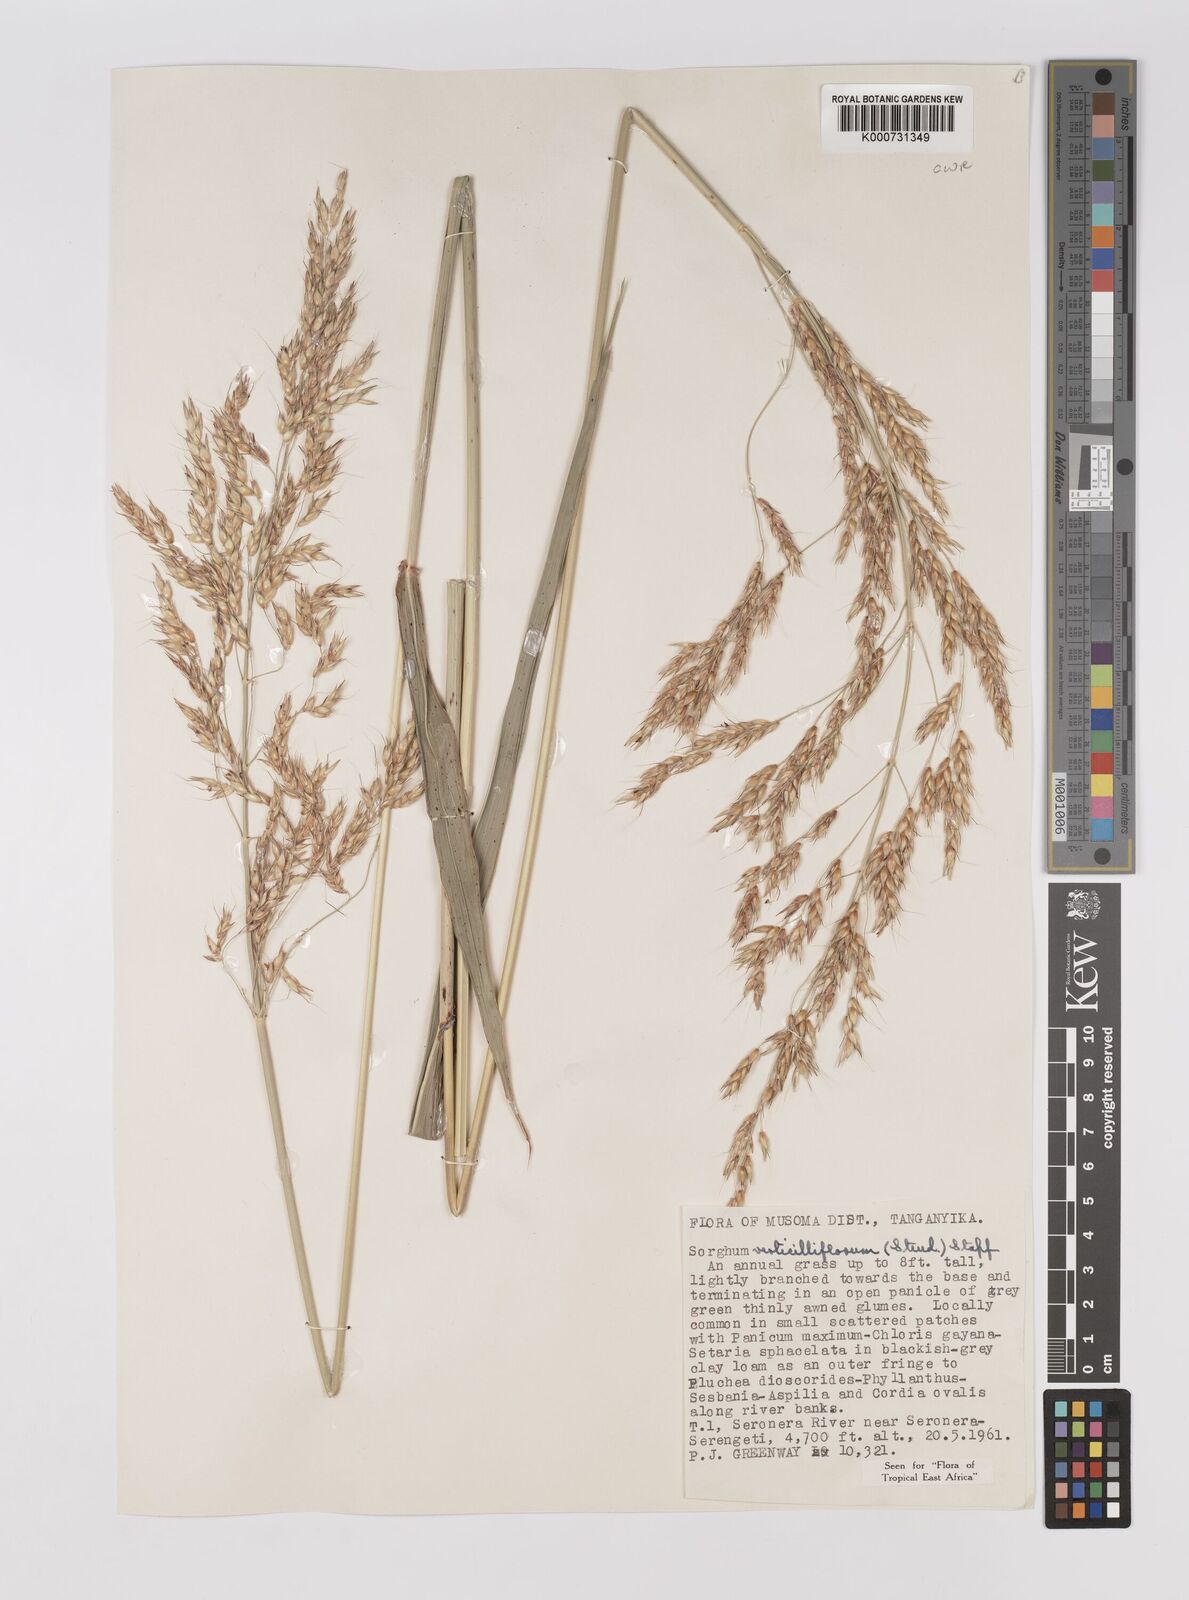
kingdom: Plantae
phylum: Tracheophyta
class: Liliopsida
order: Poales
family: Poaceae
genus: Sorghum
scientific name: Sorghum arundinaceum
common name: Sorghum
